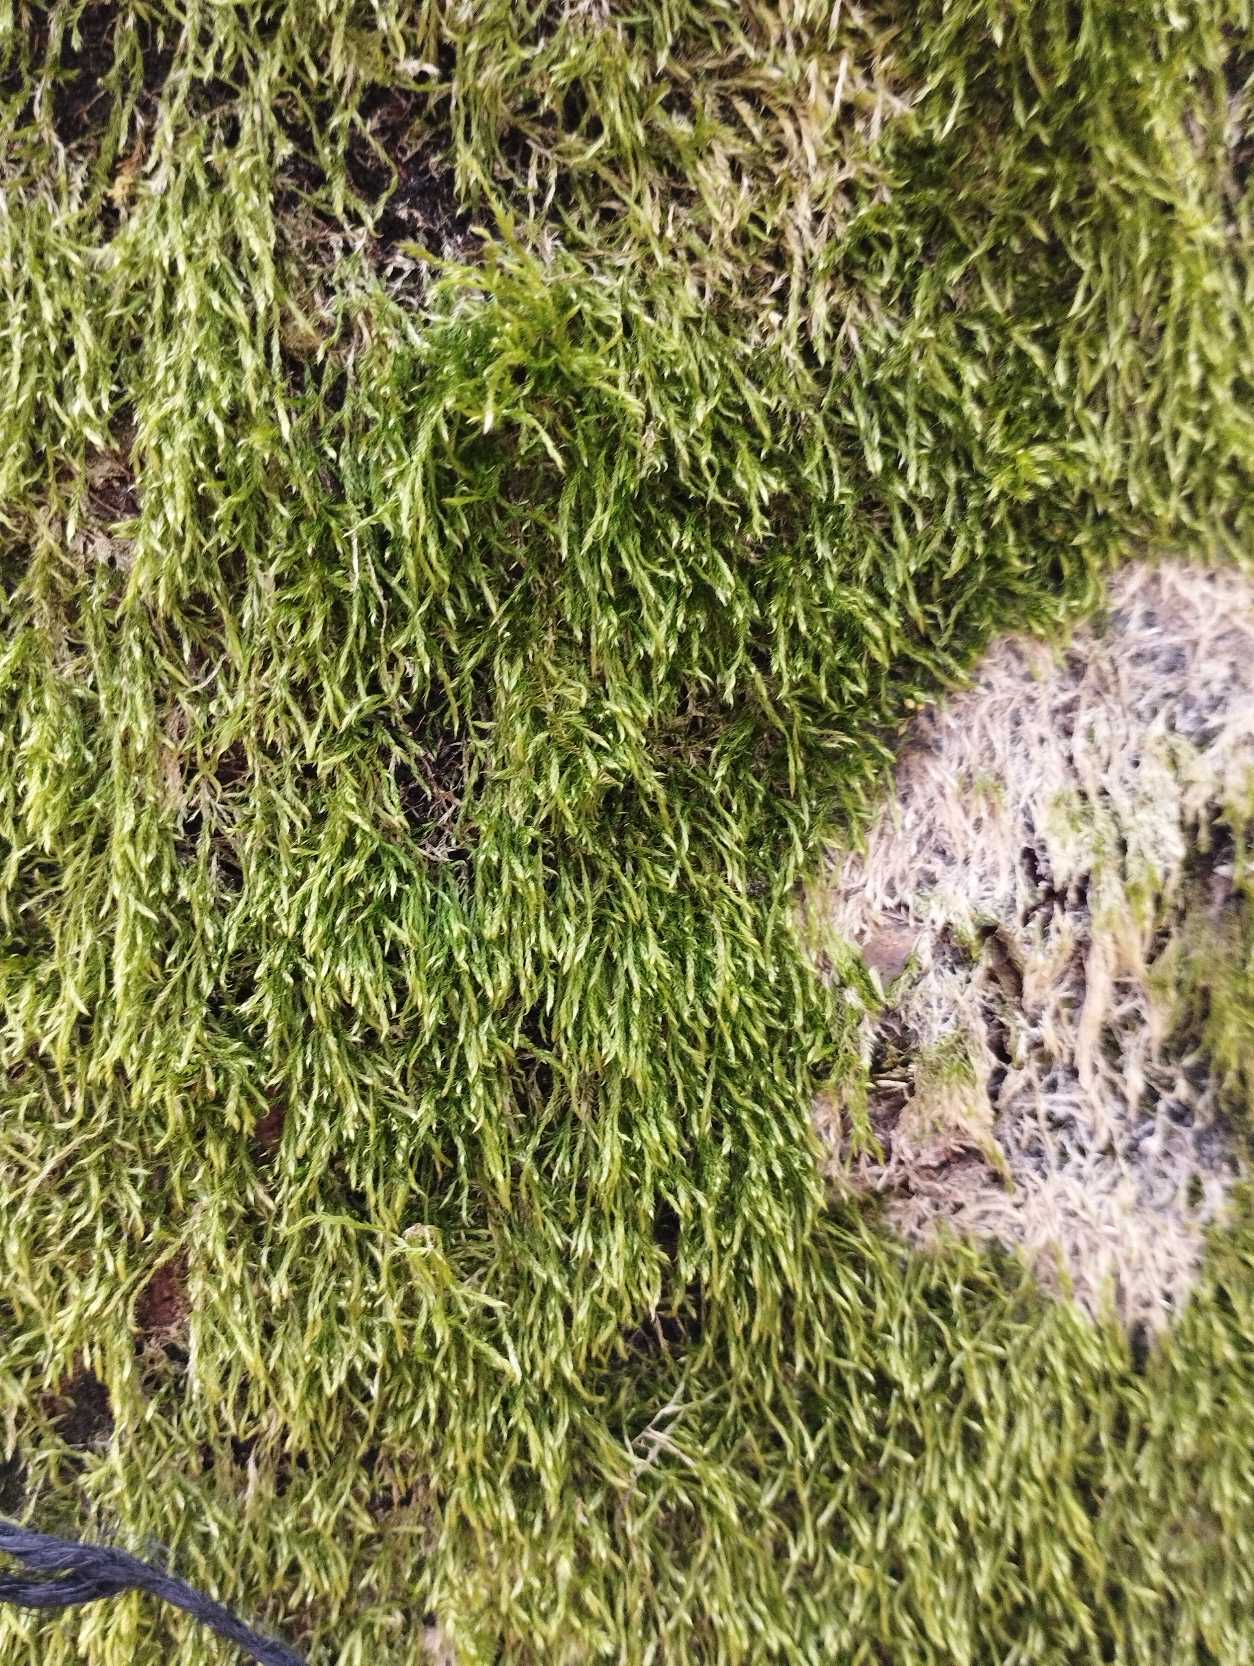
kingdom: Plantae
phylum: Bryophyta
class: Bryopsida
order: Hypnales
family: Hypnaceae
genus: Hypnum
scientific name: Hypnum
